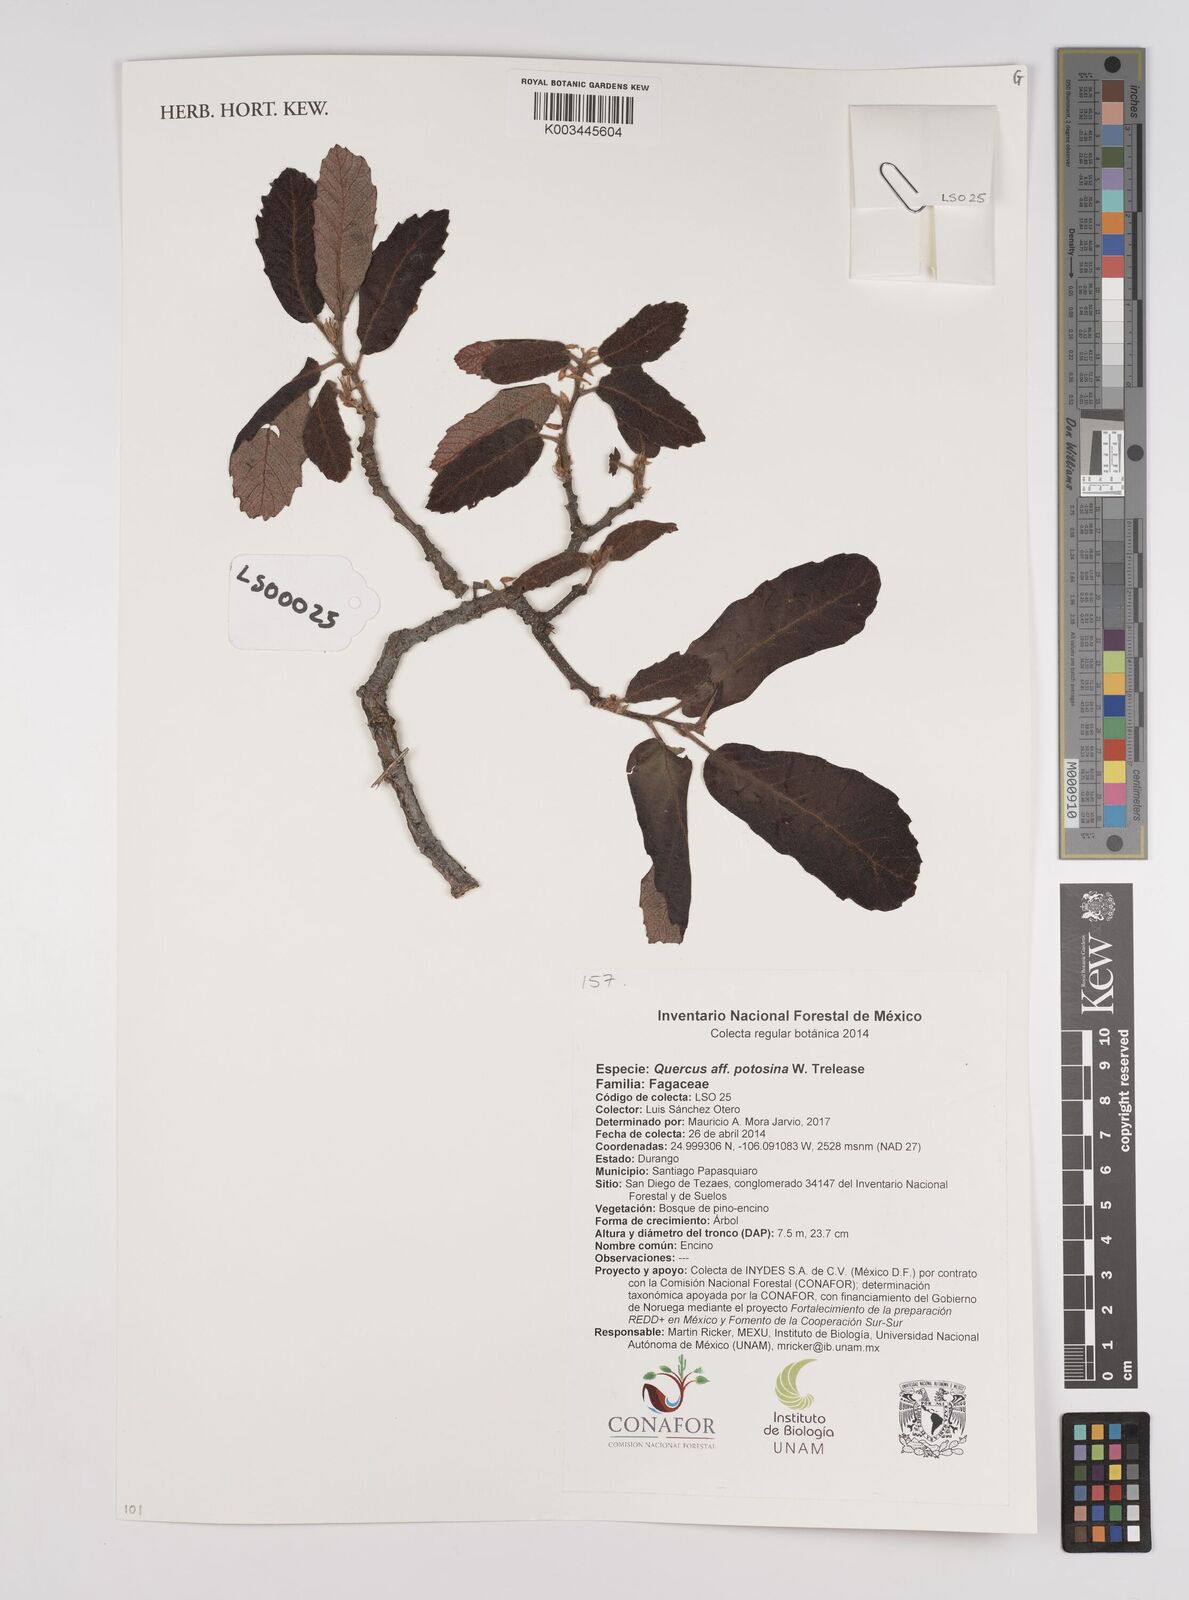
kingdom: Plantae
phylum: Tracheophyta
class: Magnoliopsida
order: Fagales
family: Fagaceae
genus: Quercus
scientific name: Quercus potosina
